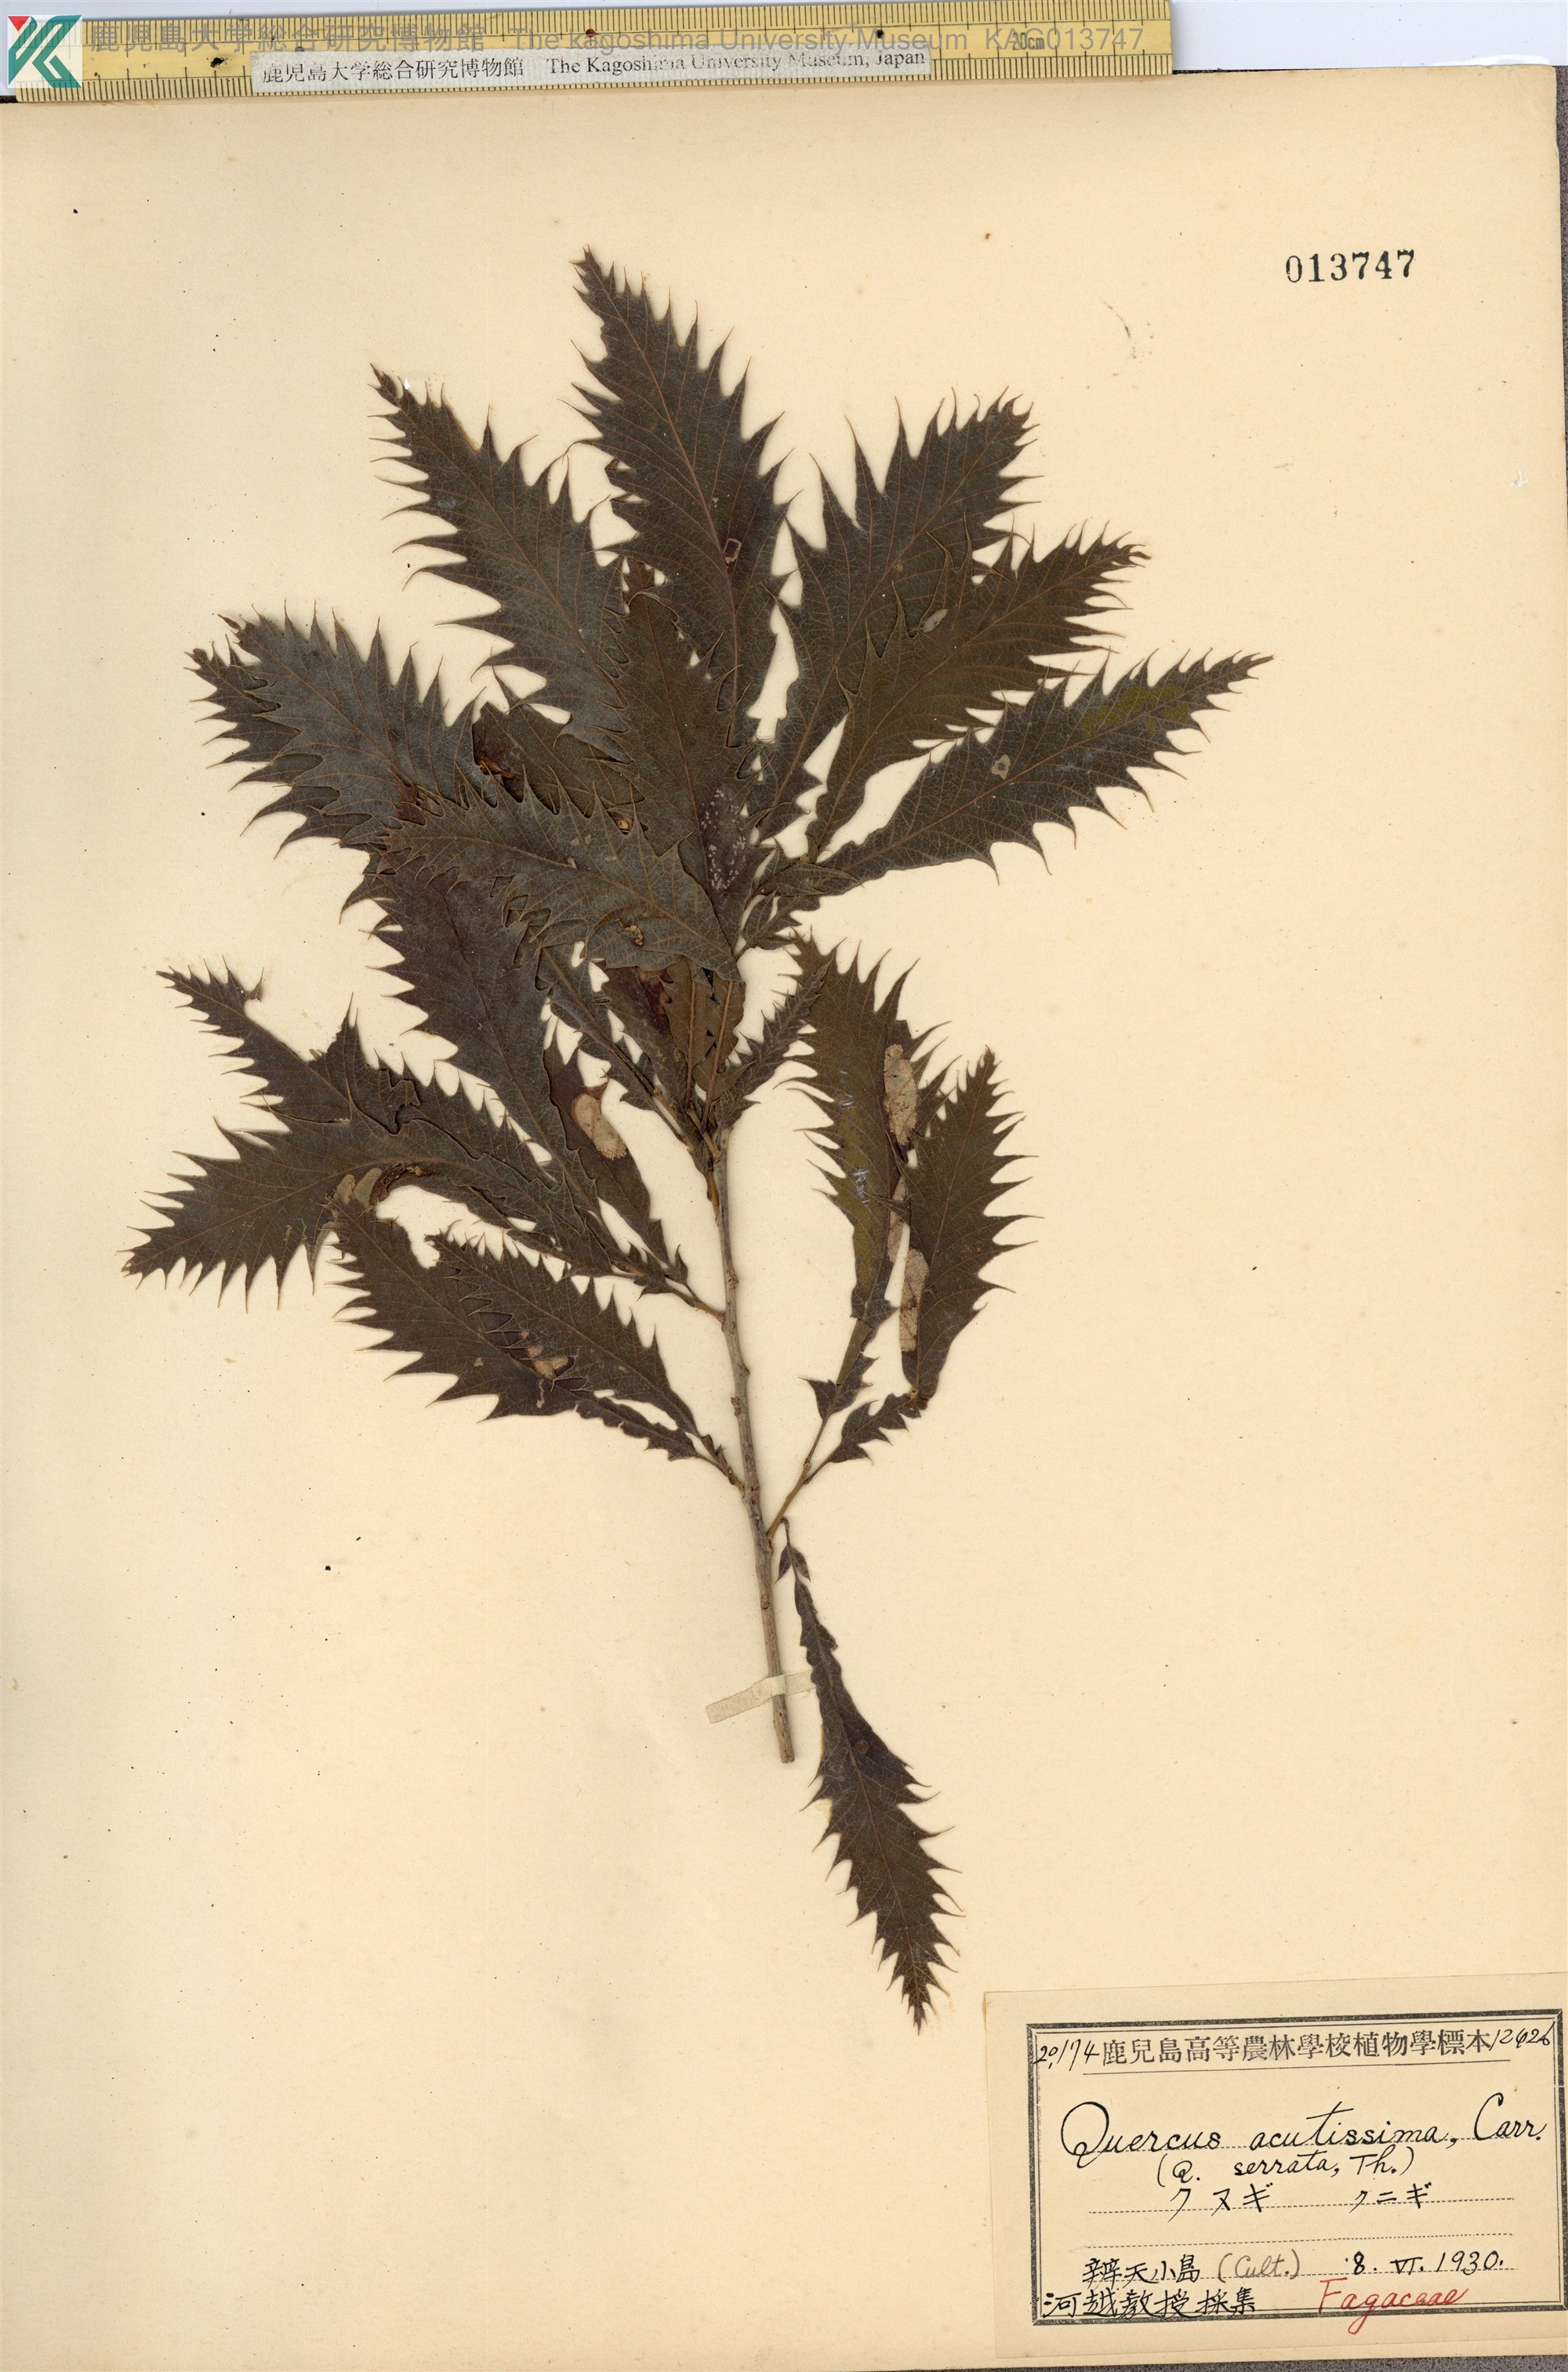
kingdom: Plantae
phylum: Tracheophyta
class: Magnoliopsida
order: Fagales
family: Fagaceae
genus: Quercus
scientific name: Quercus acutissima
